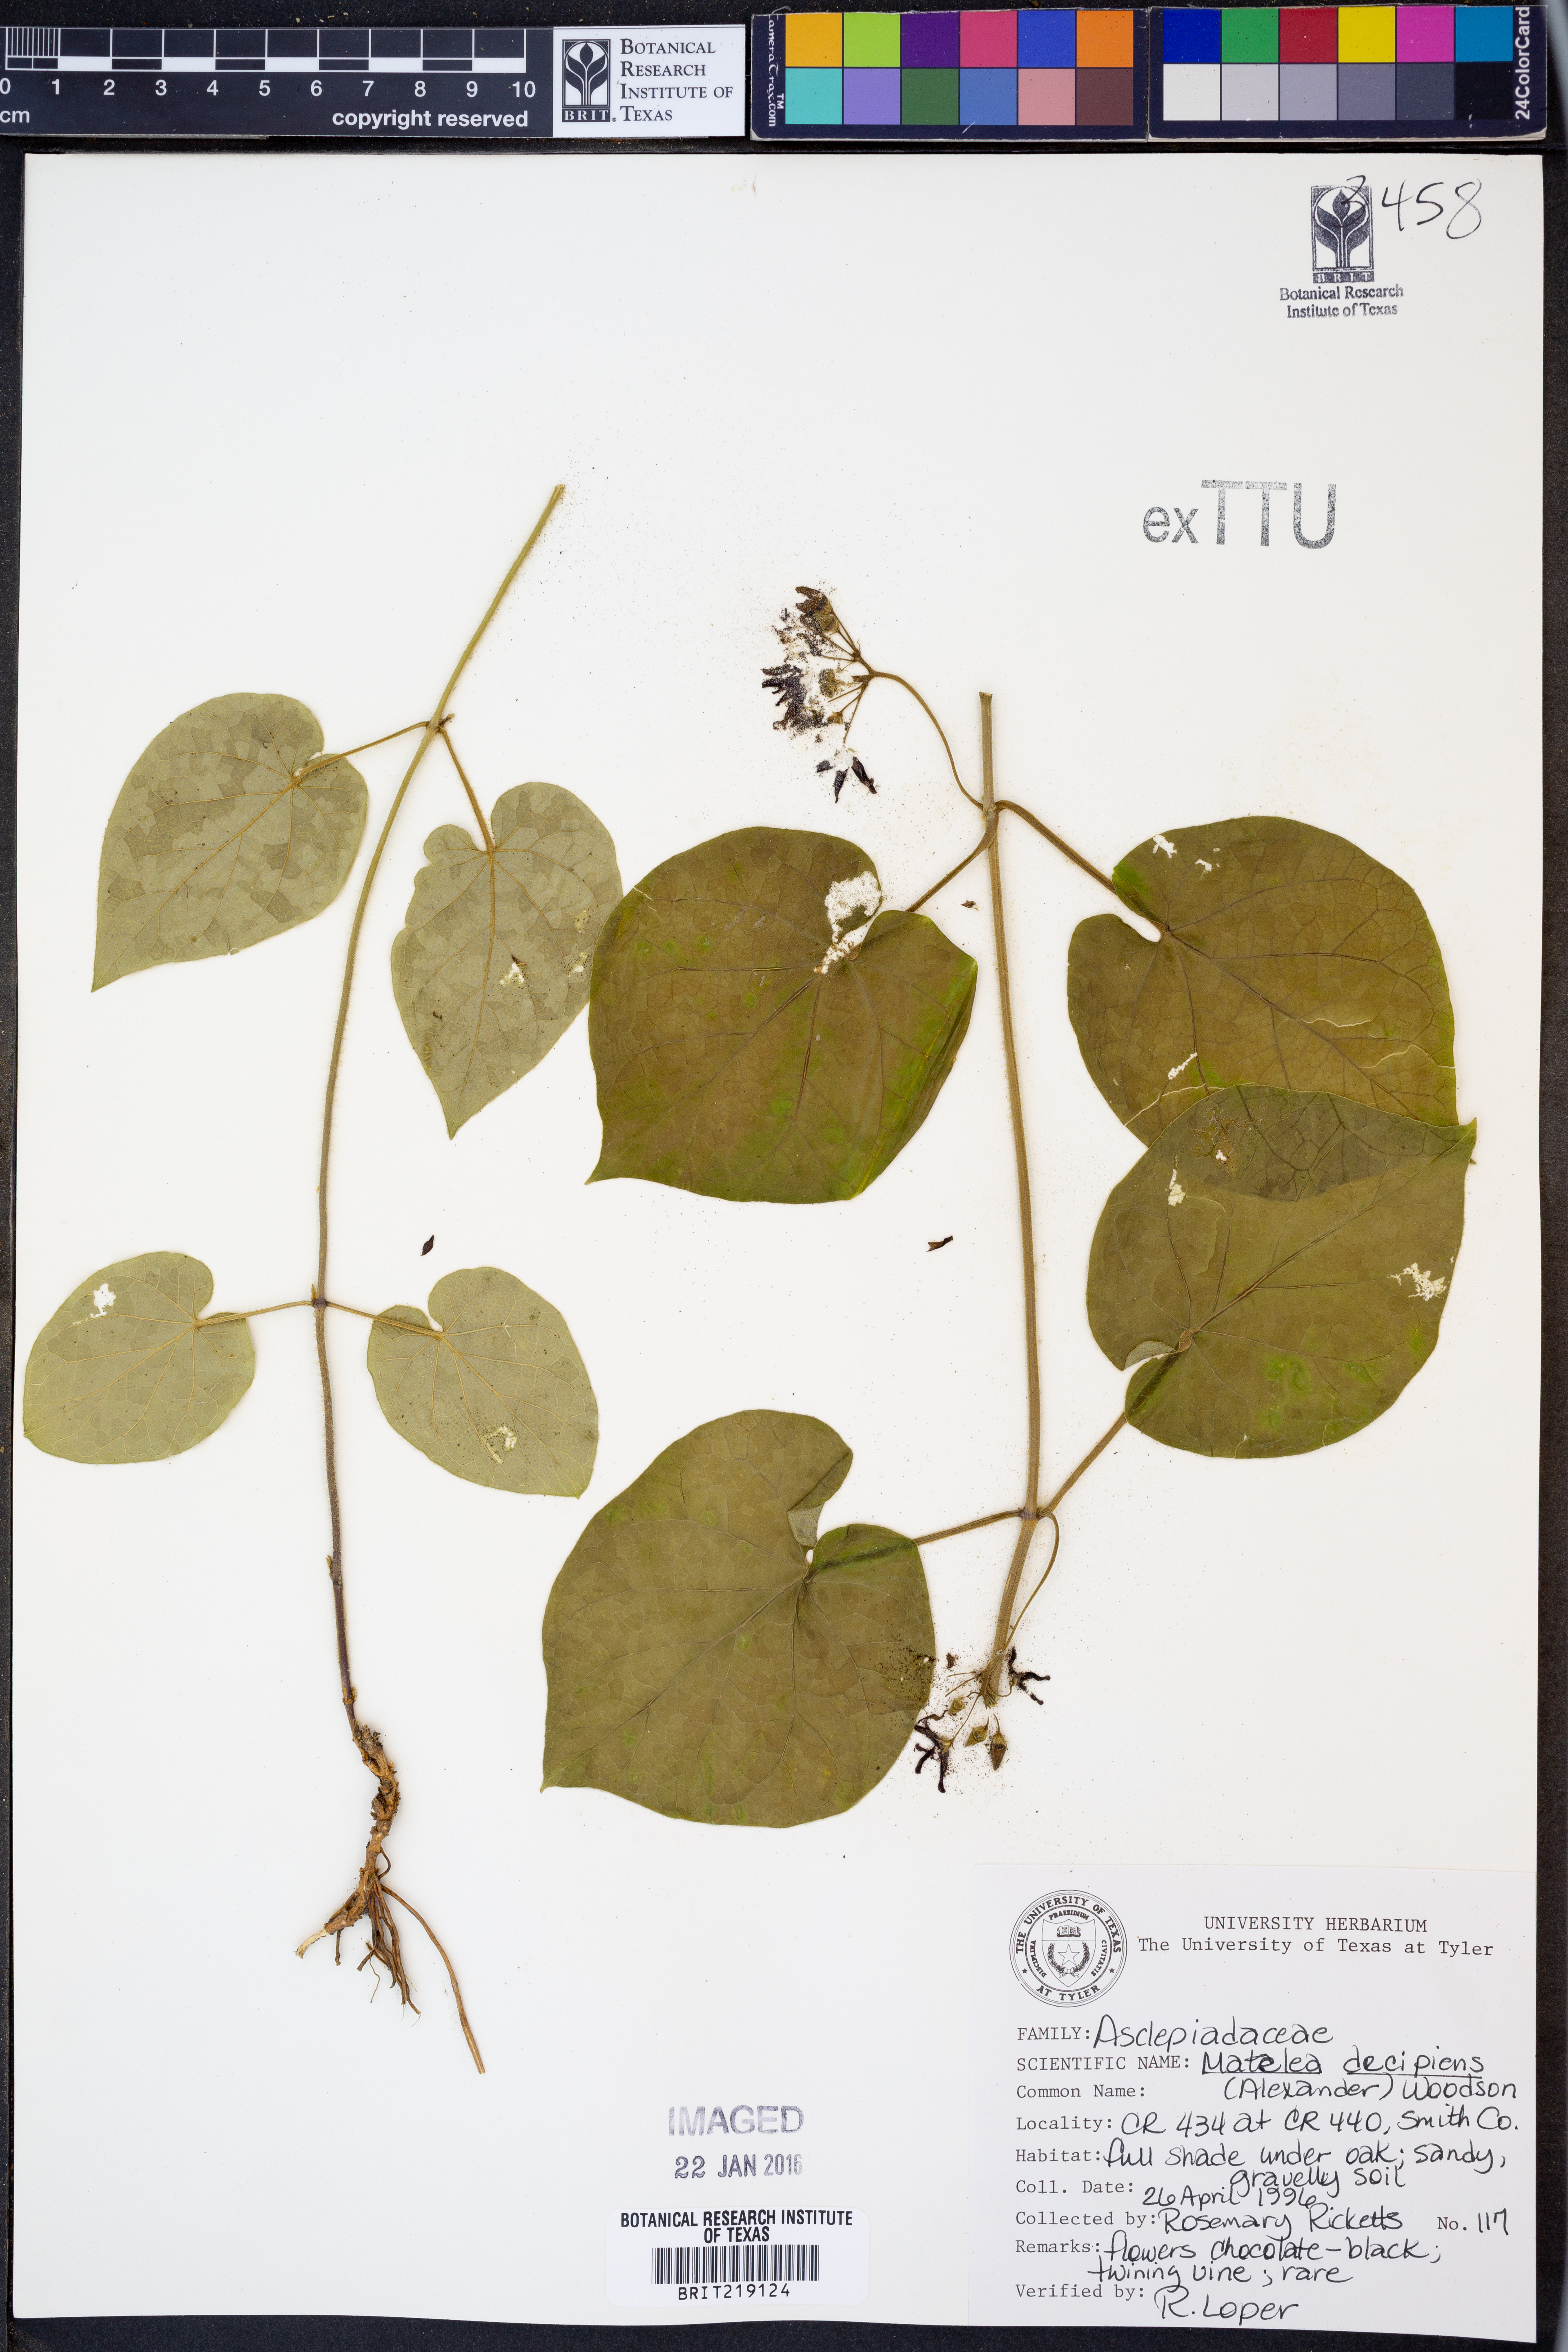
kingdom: Plantae
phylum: Tracheophyta
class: Magnoliopsida
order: Gentianales
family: Apocynaceae
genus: Matelea
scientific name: Matelea decipiens
